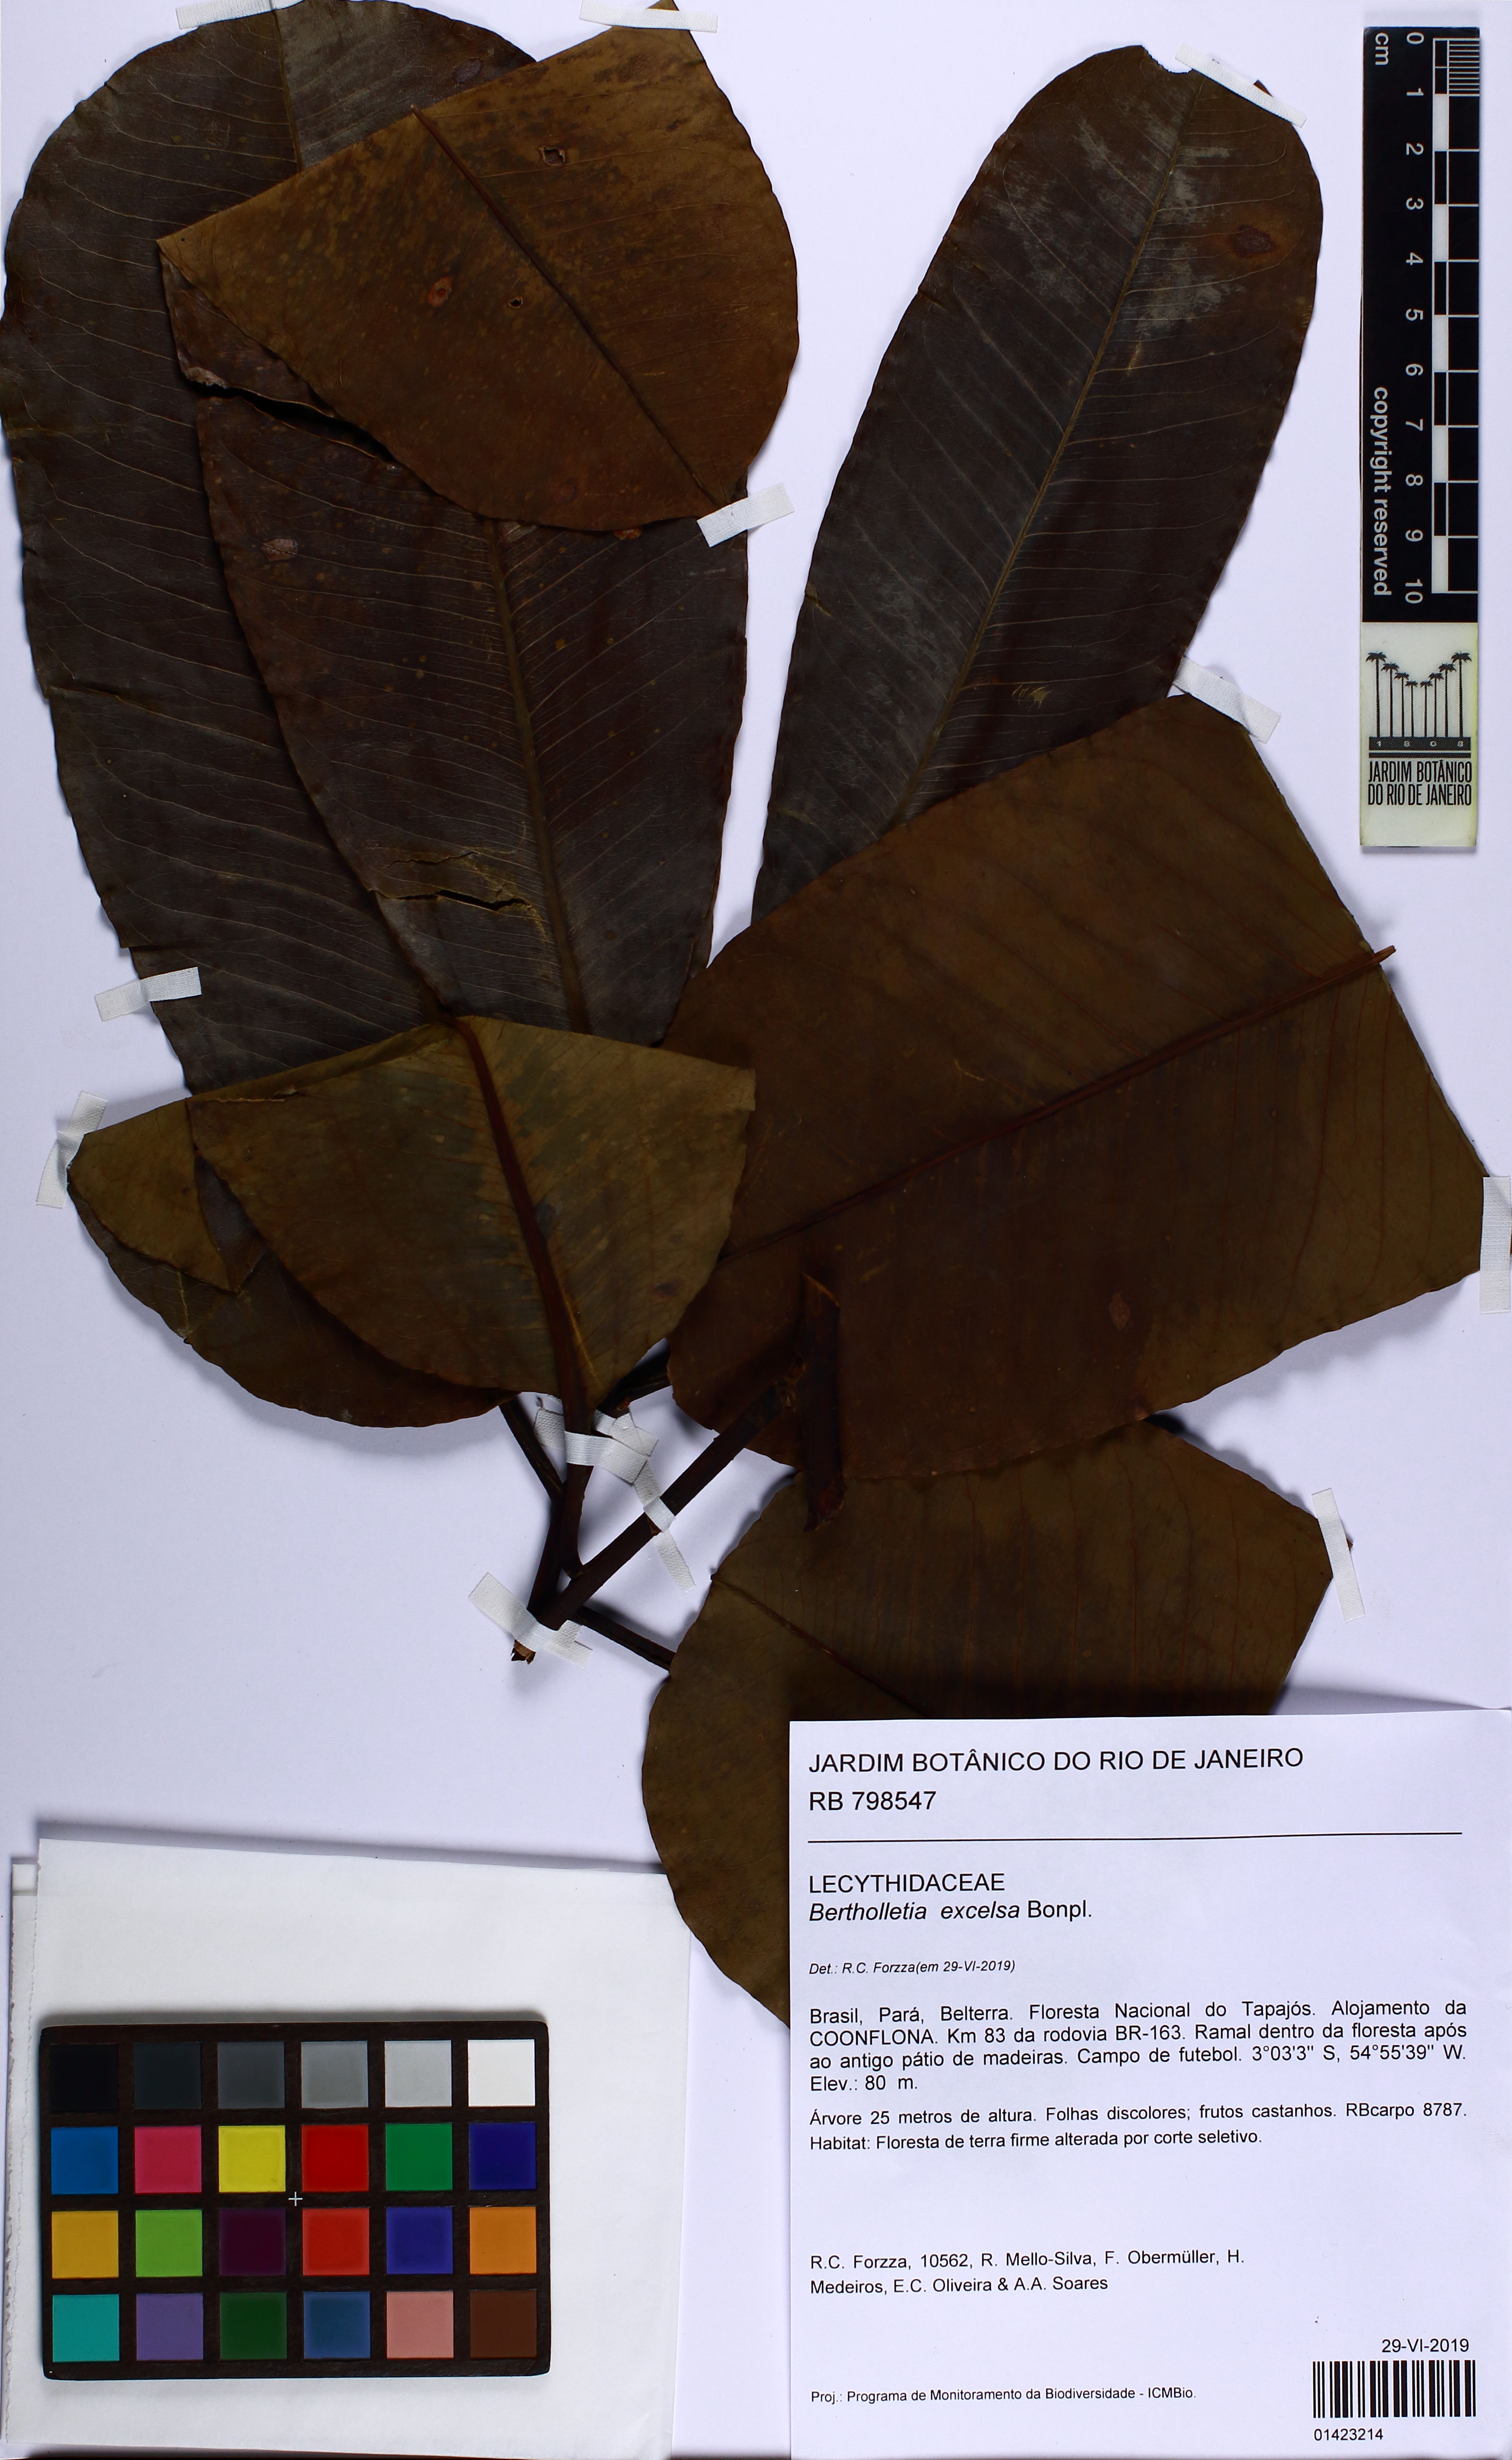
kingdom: Plantae
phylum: Tracheophyta
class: Magnoliopsida
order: Ericales
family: Lecythidaceae
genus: Bertholletia
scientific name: Bertholletia excelsa
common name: Brazil-nut tree
